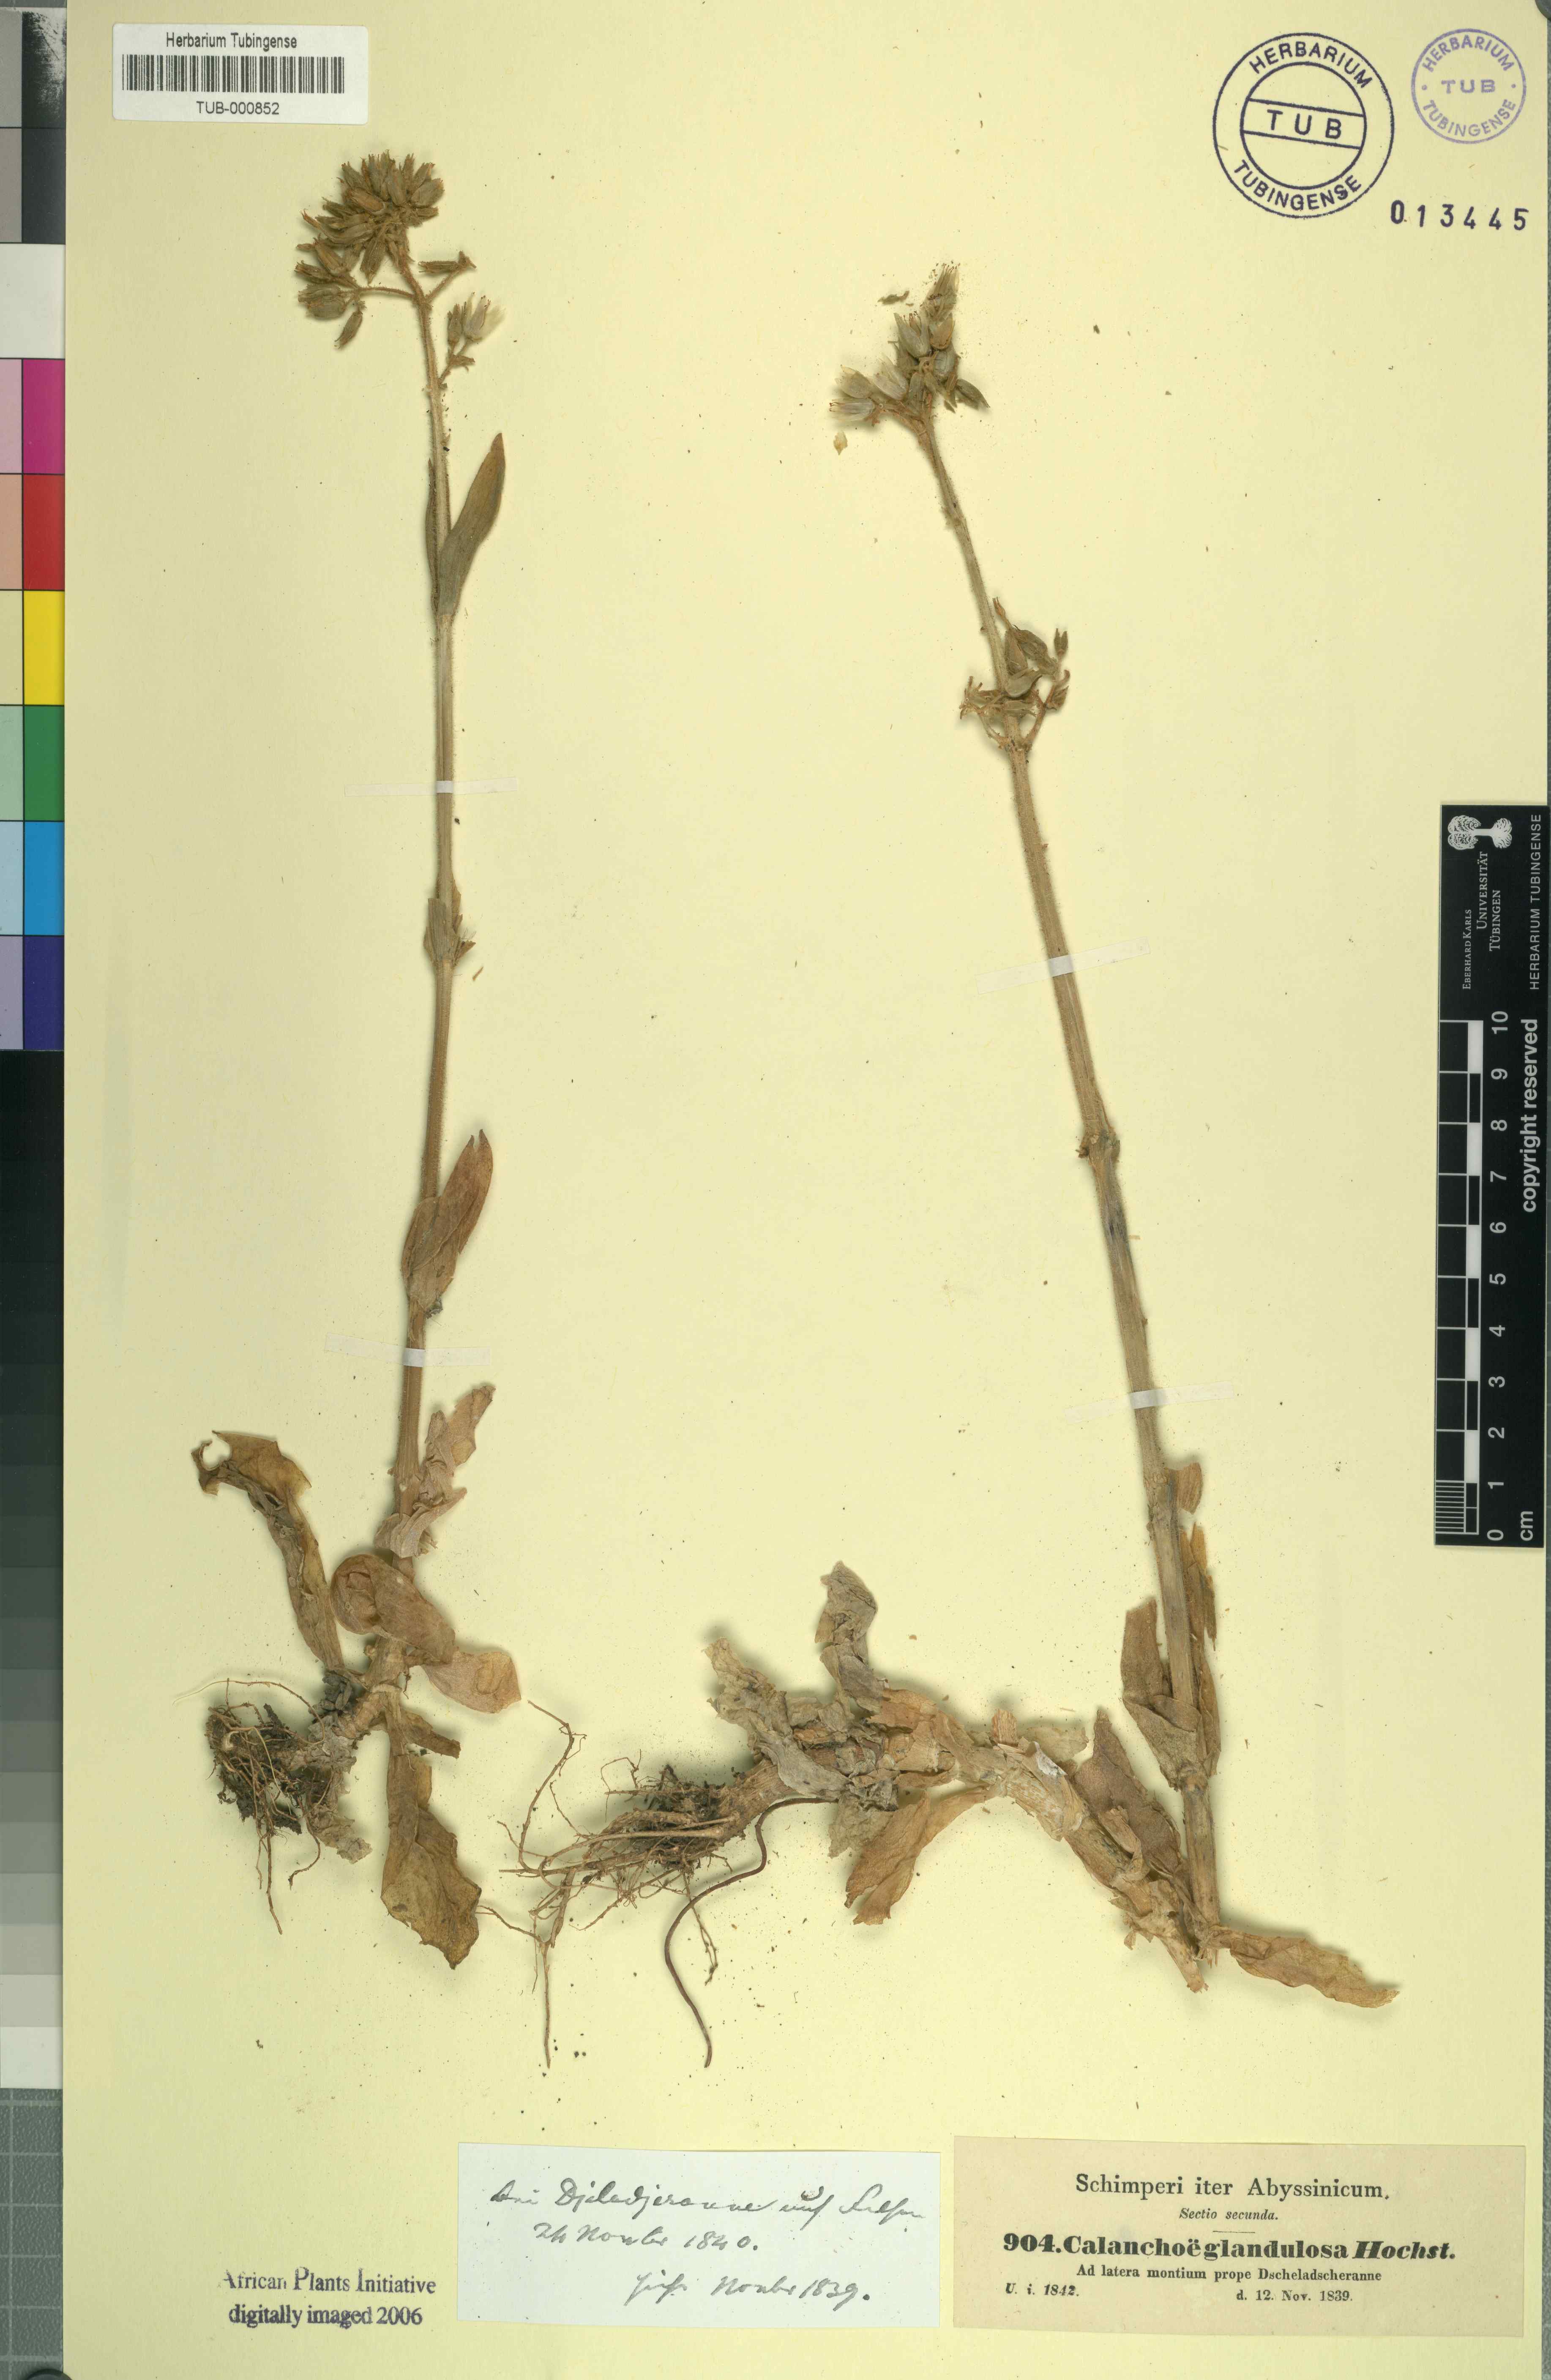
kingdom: Plantae
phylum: Tracheophyta
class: Magnoliopsida
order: Saxifragales
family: Crassulaceae
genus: Kalanchoe
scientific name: Kalanchoe lanceolata
